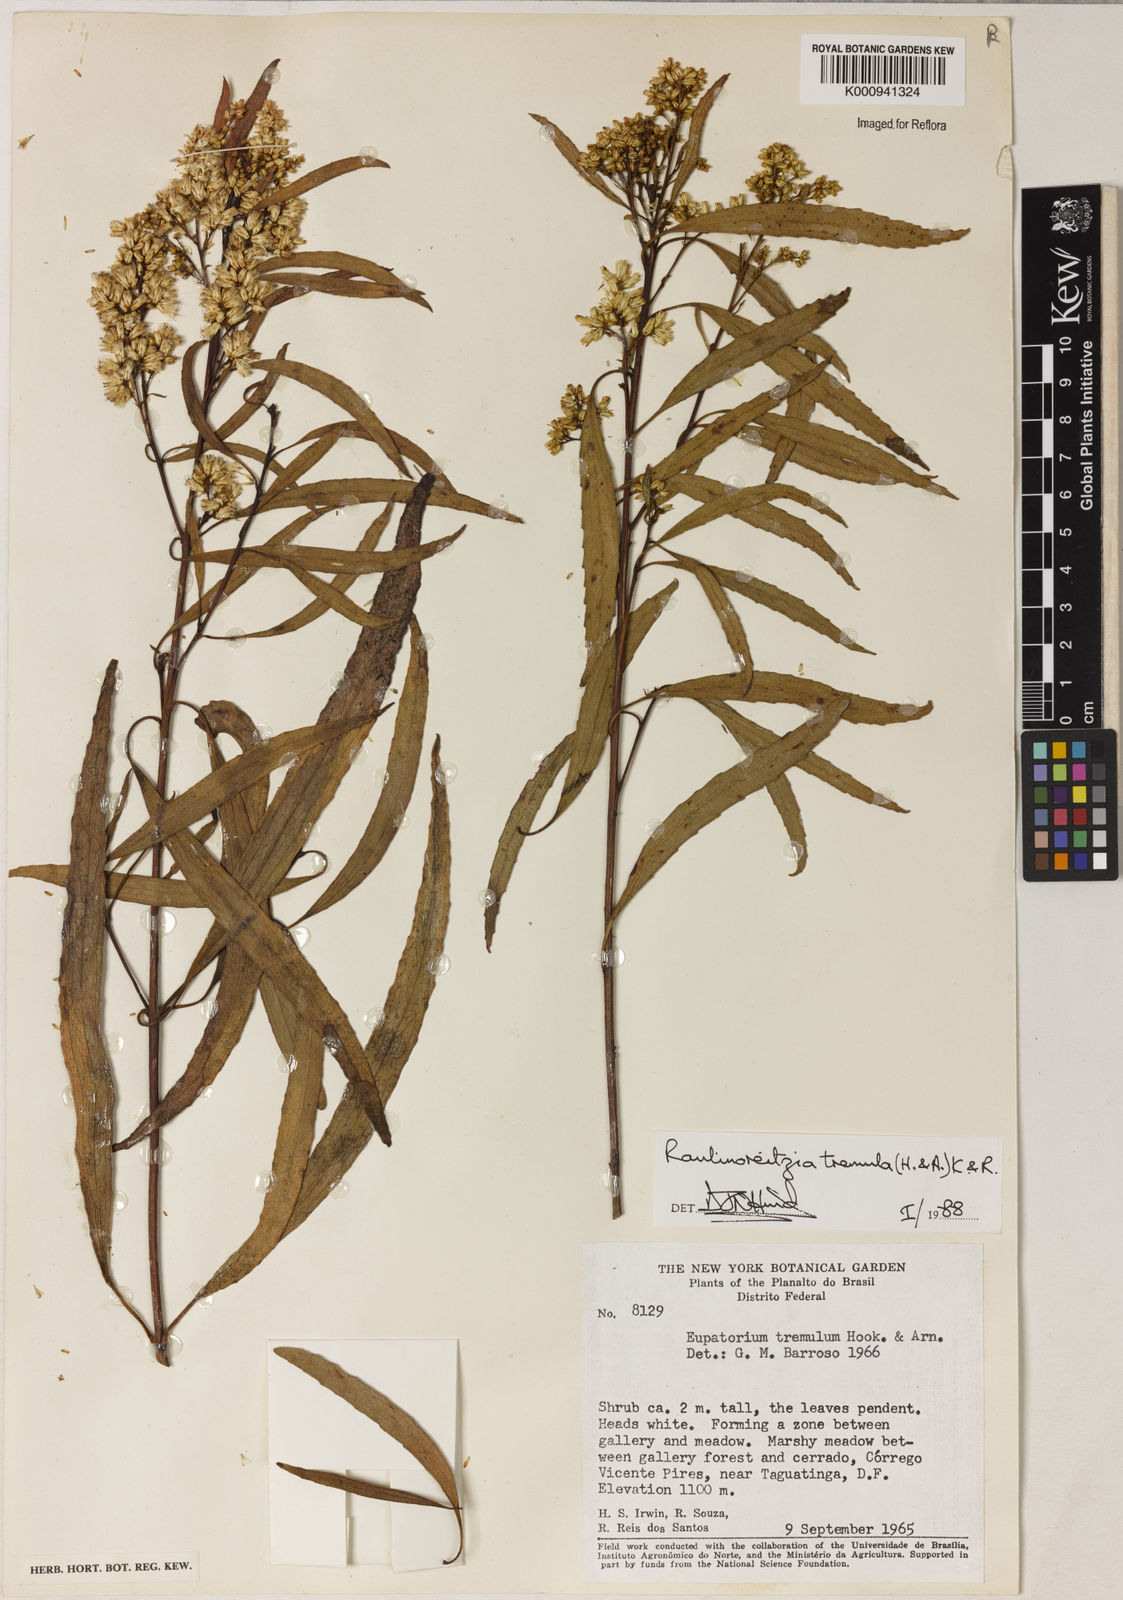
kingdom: Plantae
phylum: Tracheophyta
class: Magnoliopsida
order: Asterales
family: Asteraceae
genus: Raulinoreitzia
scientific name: Raulinoreitzia tremula
